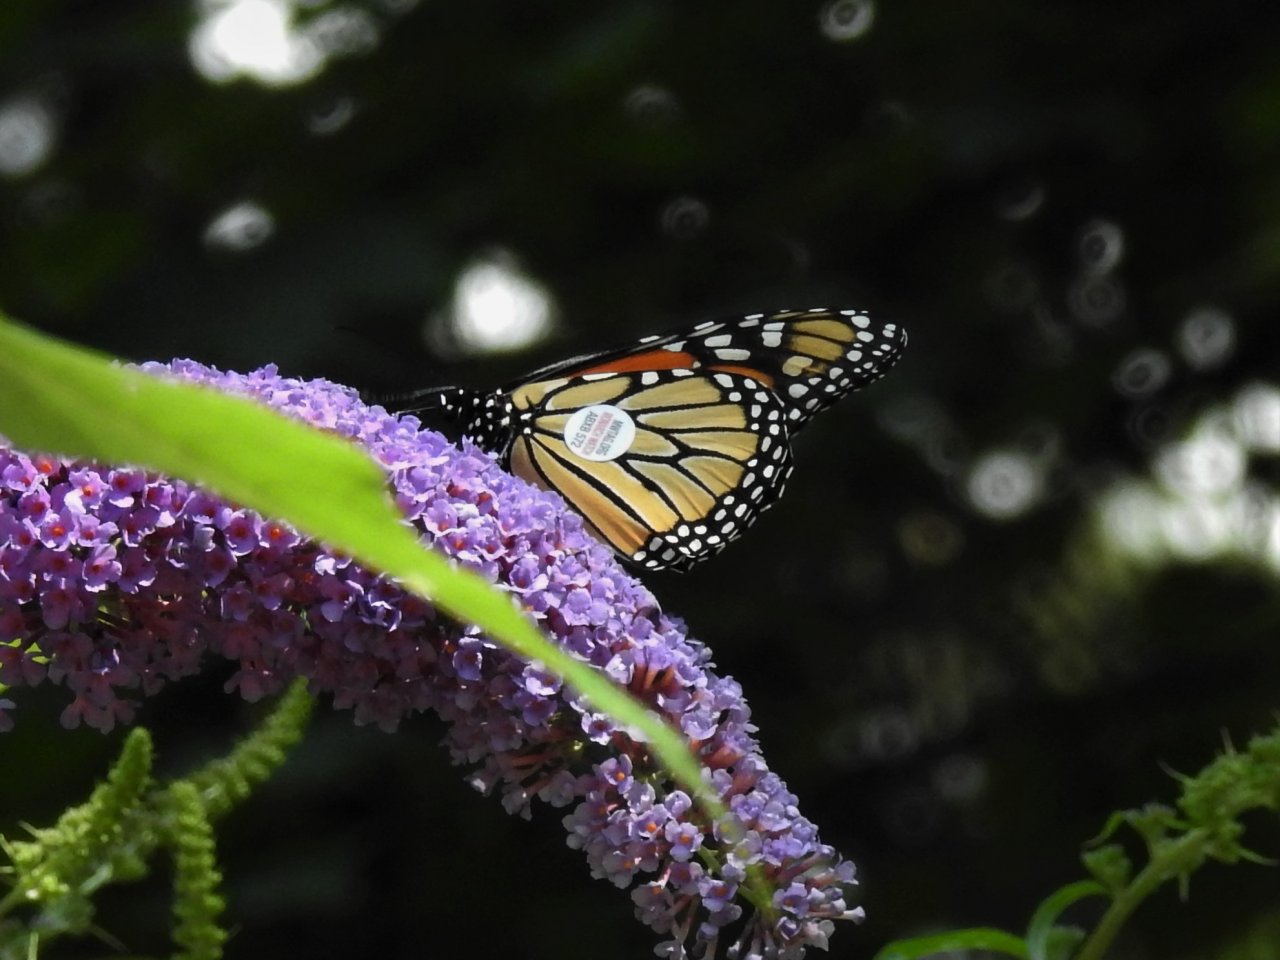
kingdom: Animalia
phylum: Arthropoda
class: Insecta
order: Lepidoptera
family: Nymphalidae
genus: Danaus
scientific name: Danaus plexippus
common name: Monarch
